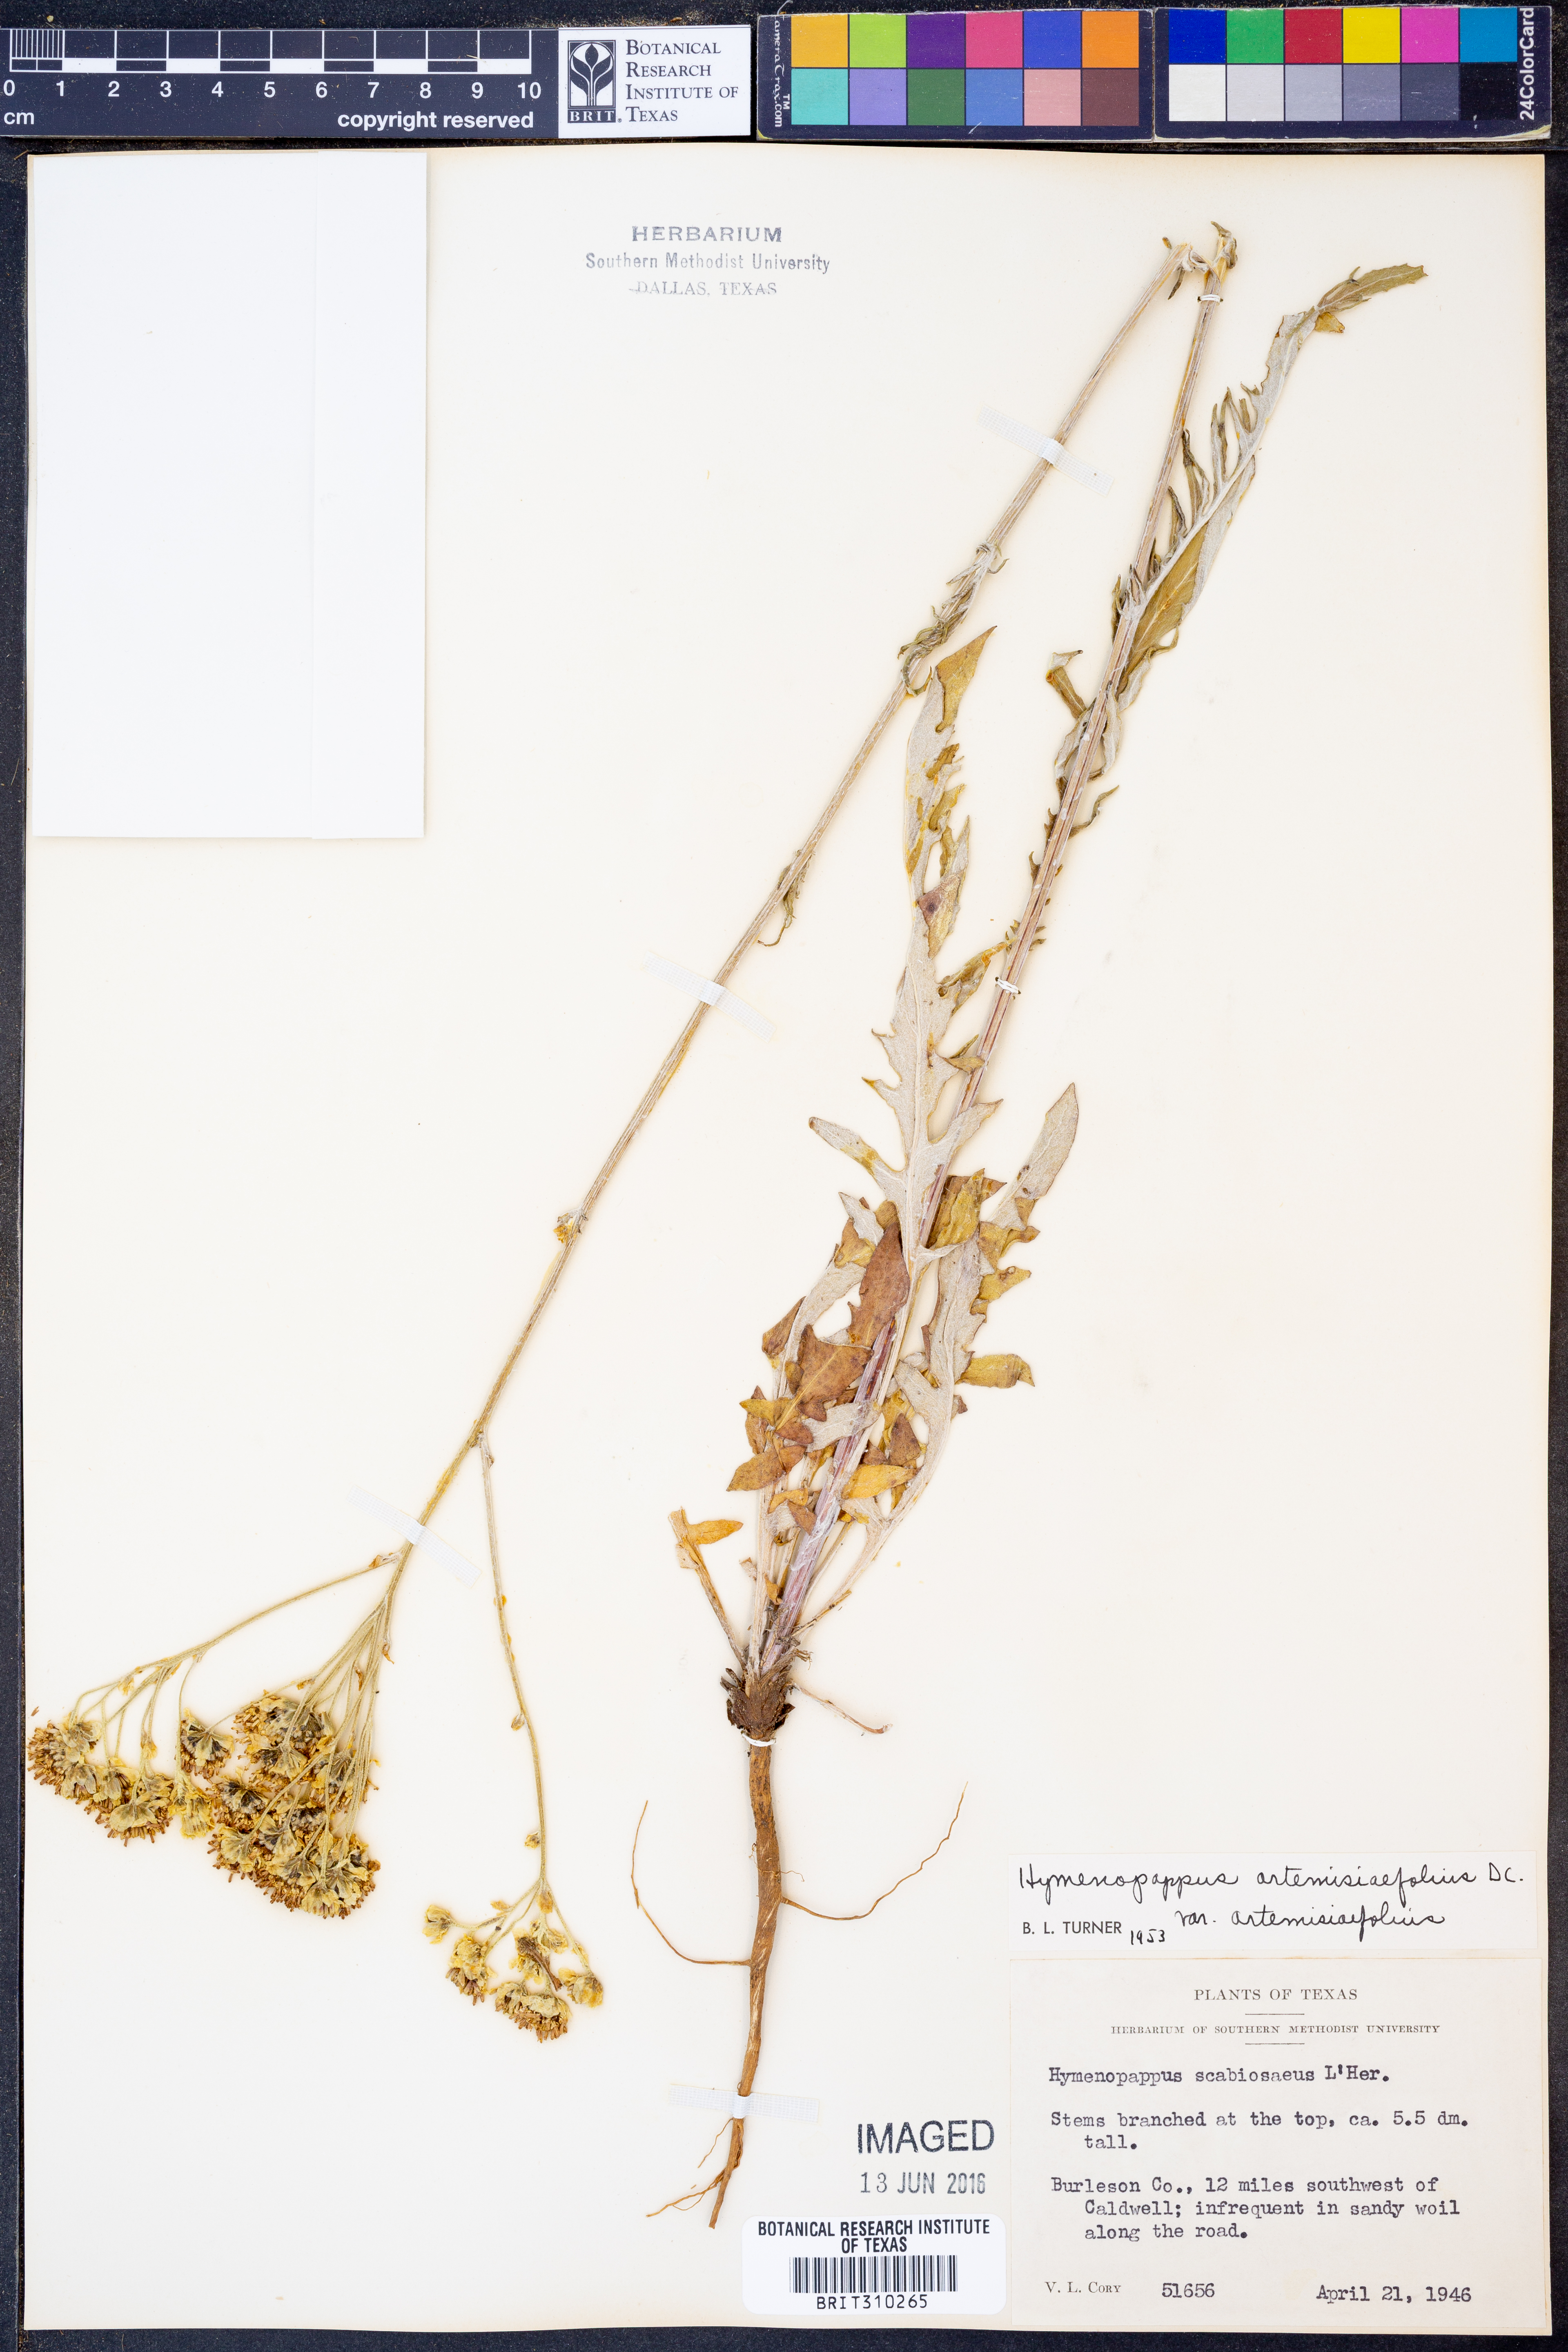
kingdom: Plantae
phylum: Tracheophyta
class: Magnoliopsida
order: Asterales
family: Asteraceae
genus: Hymenopappus
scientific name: Hymenopappus artemisiifolius
